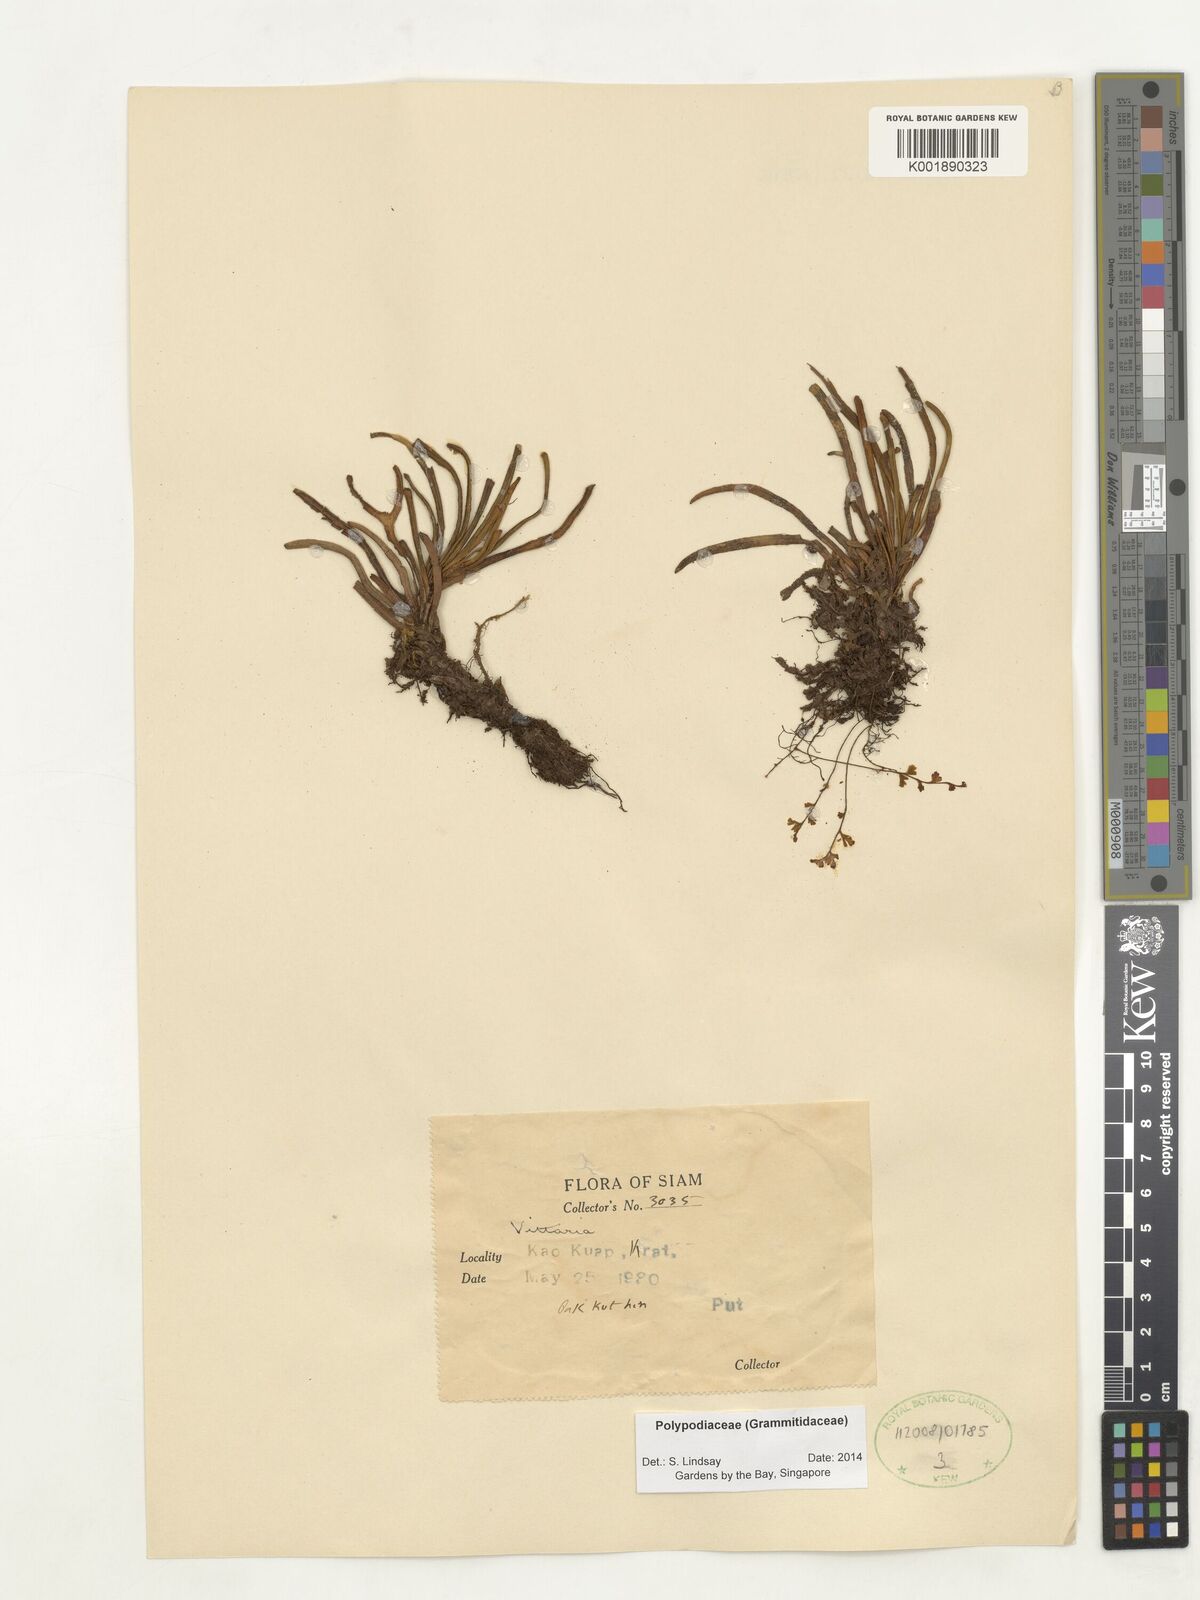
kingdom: Plantae
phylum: Tracheophyta
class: Polypodiopsida
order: Polypodiales
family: Polypodiaceae
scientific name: Polypodiaceae
